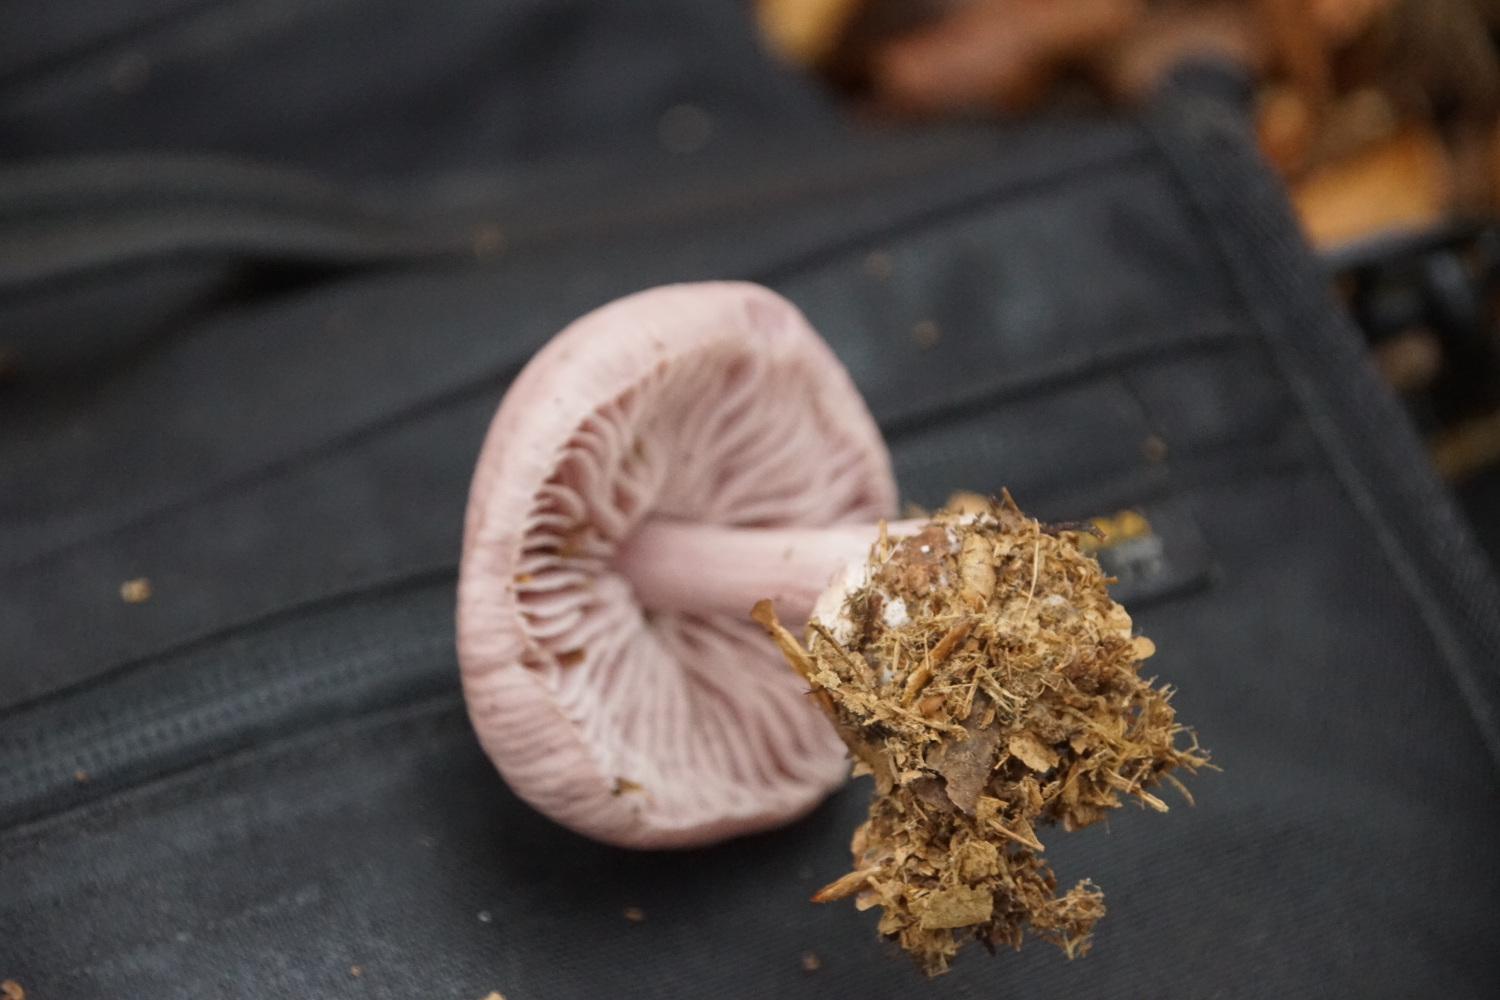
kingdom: Fungi
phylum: Basidiomycota
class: Agaricomycetes
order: Agaricales
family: Mycenaceae
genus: Mycena
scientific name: Mycena rosea
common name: rosa huesvamp
